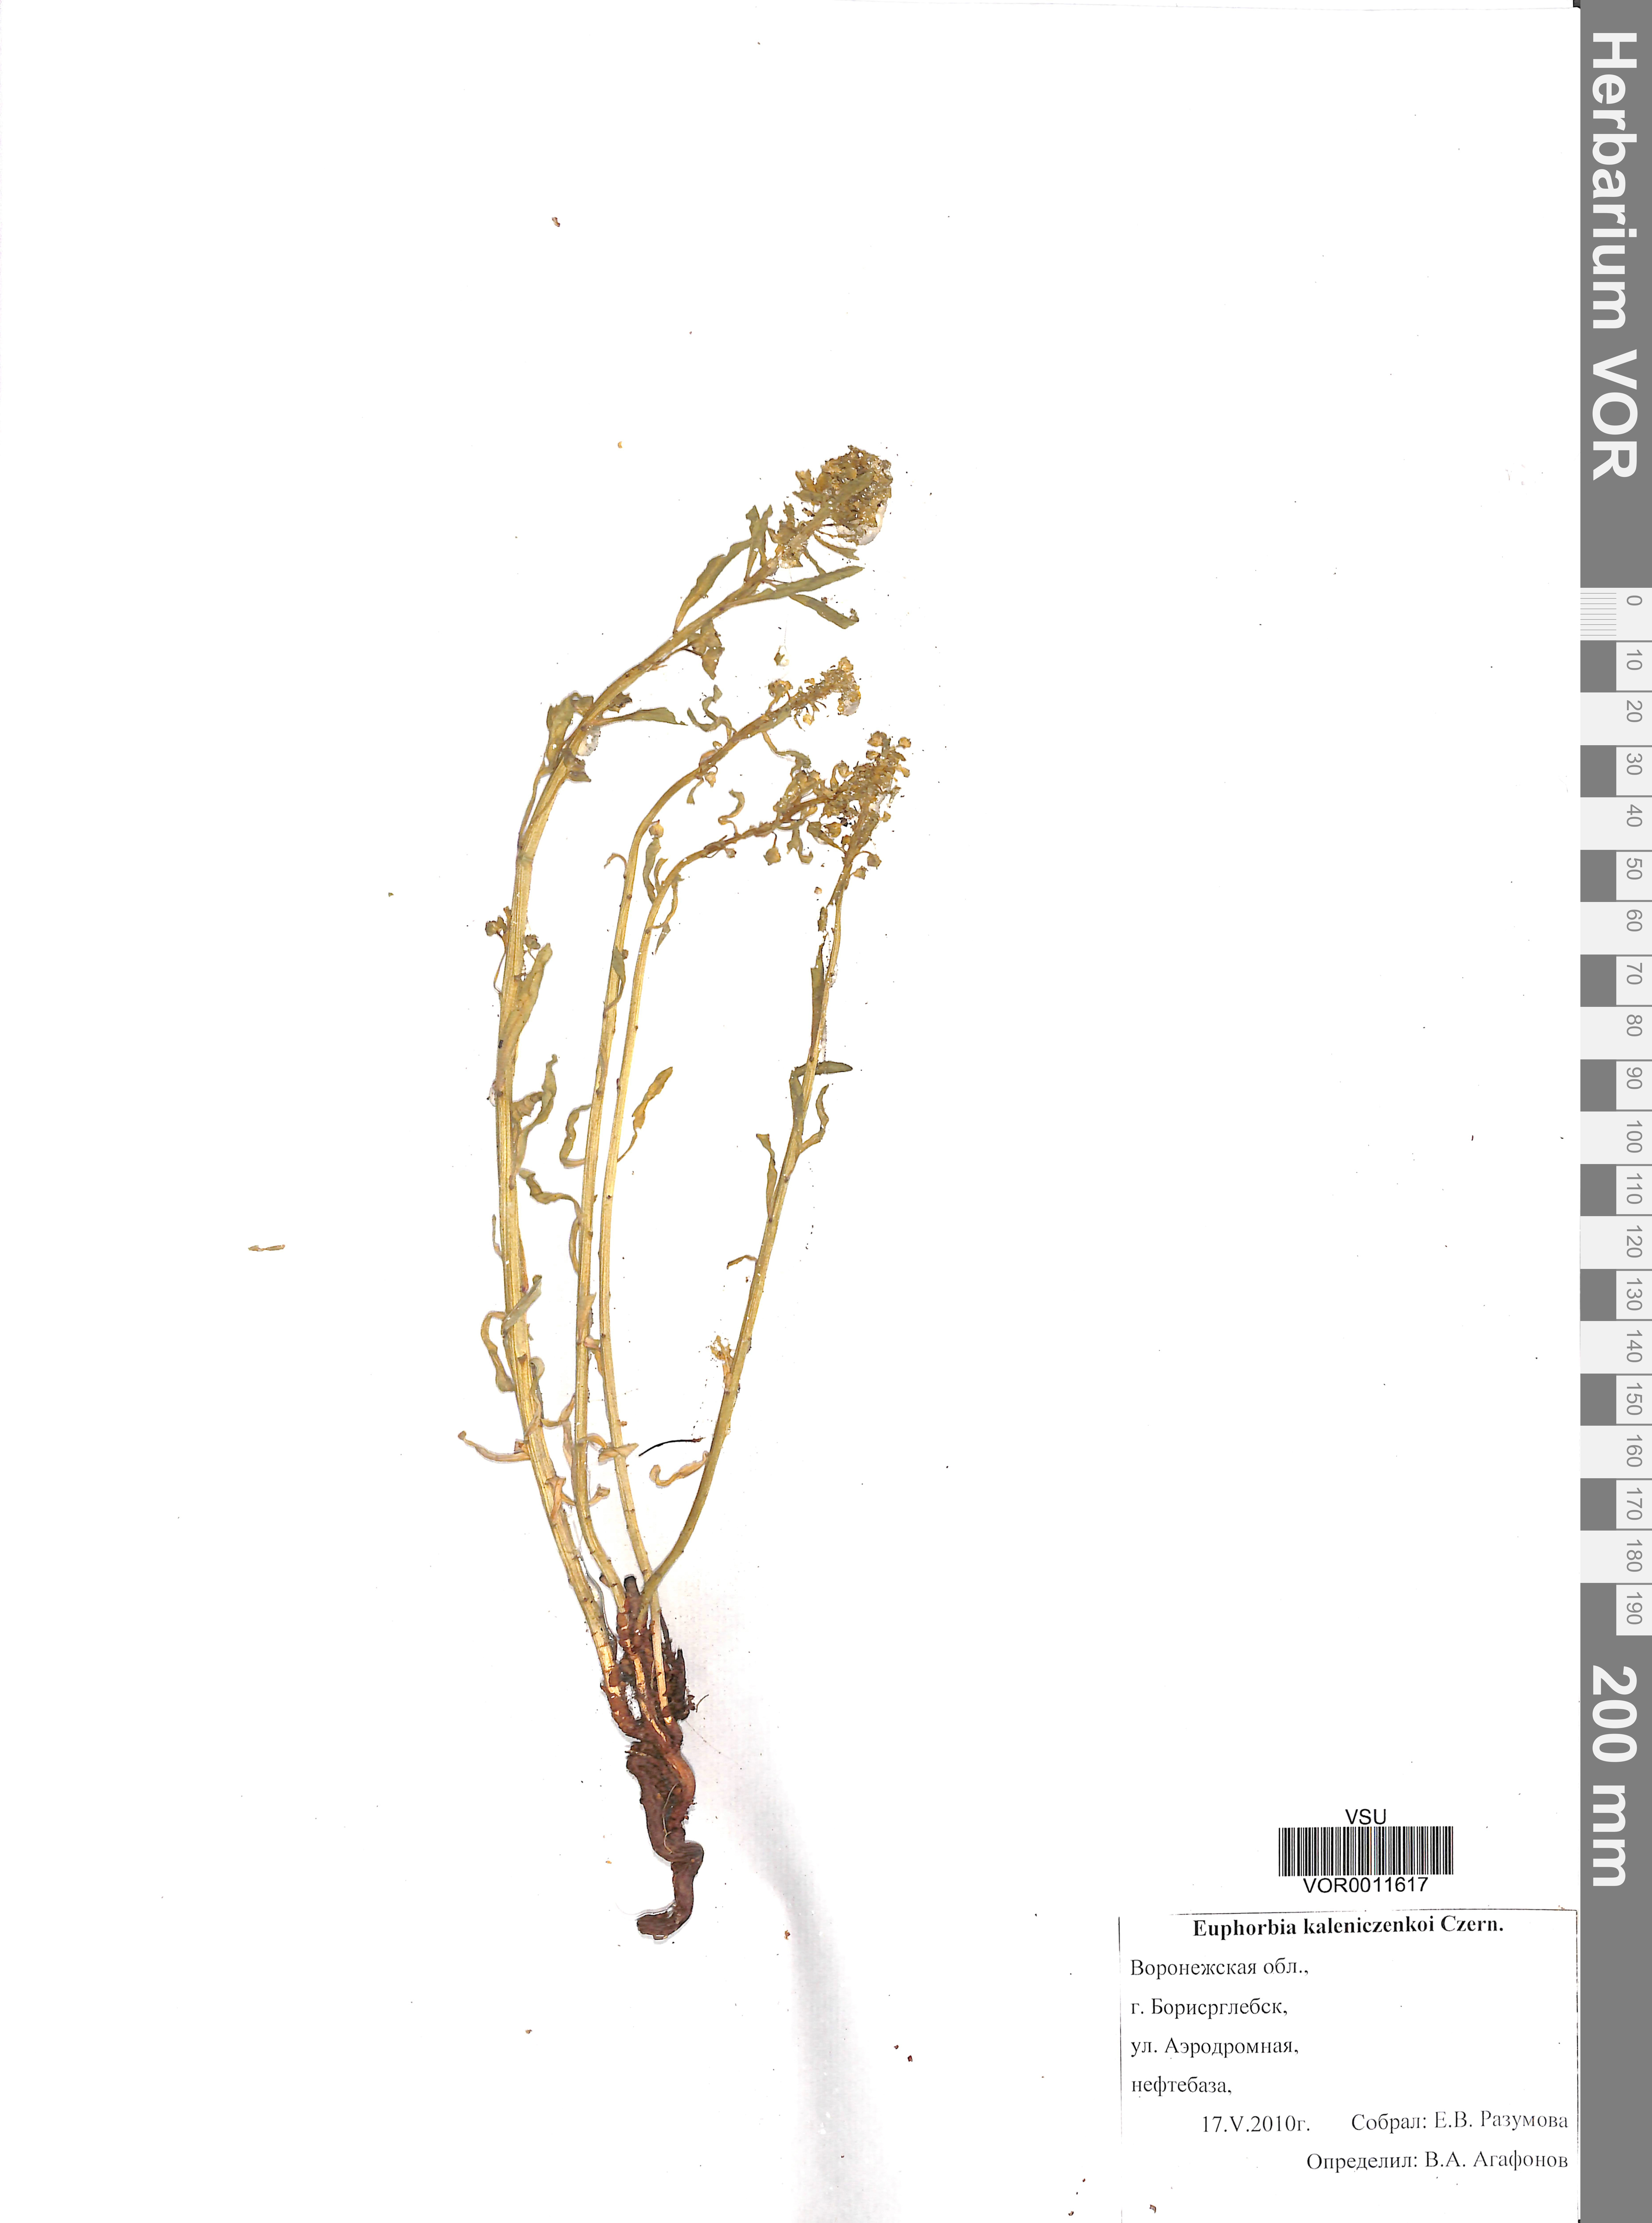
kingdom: Plantae
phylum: Tracheophyta
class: Magnoliopsida
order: Malpighiales
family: Euphorbiaceae
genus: Euphorbia
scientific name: Euphorbia esula
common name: Leafy spurge
